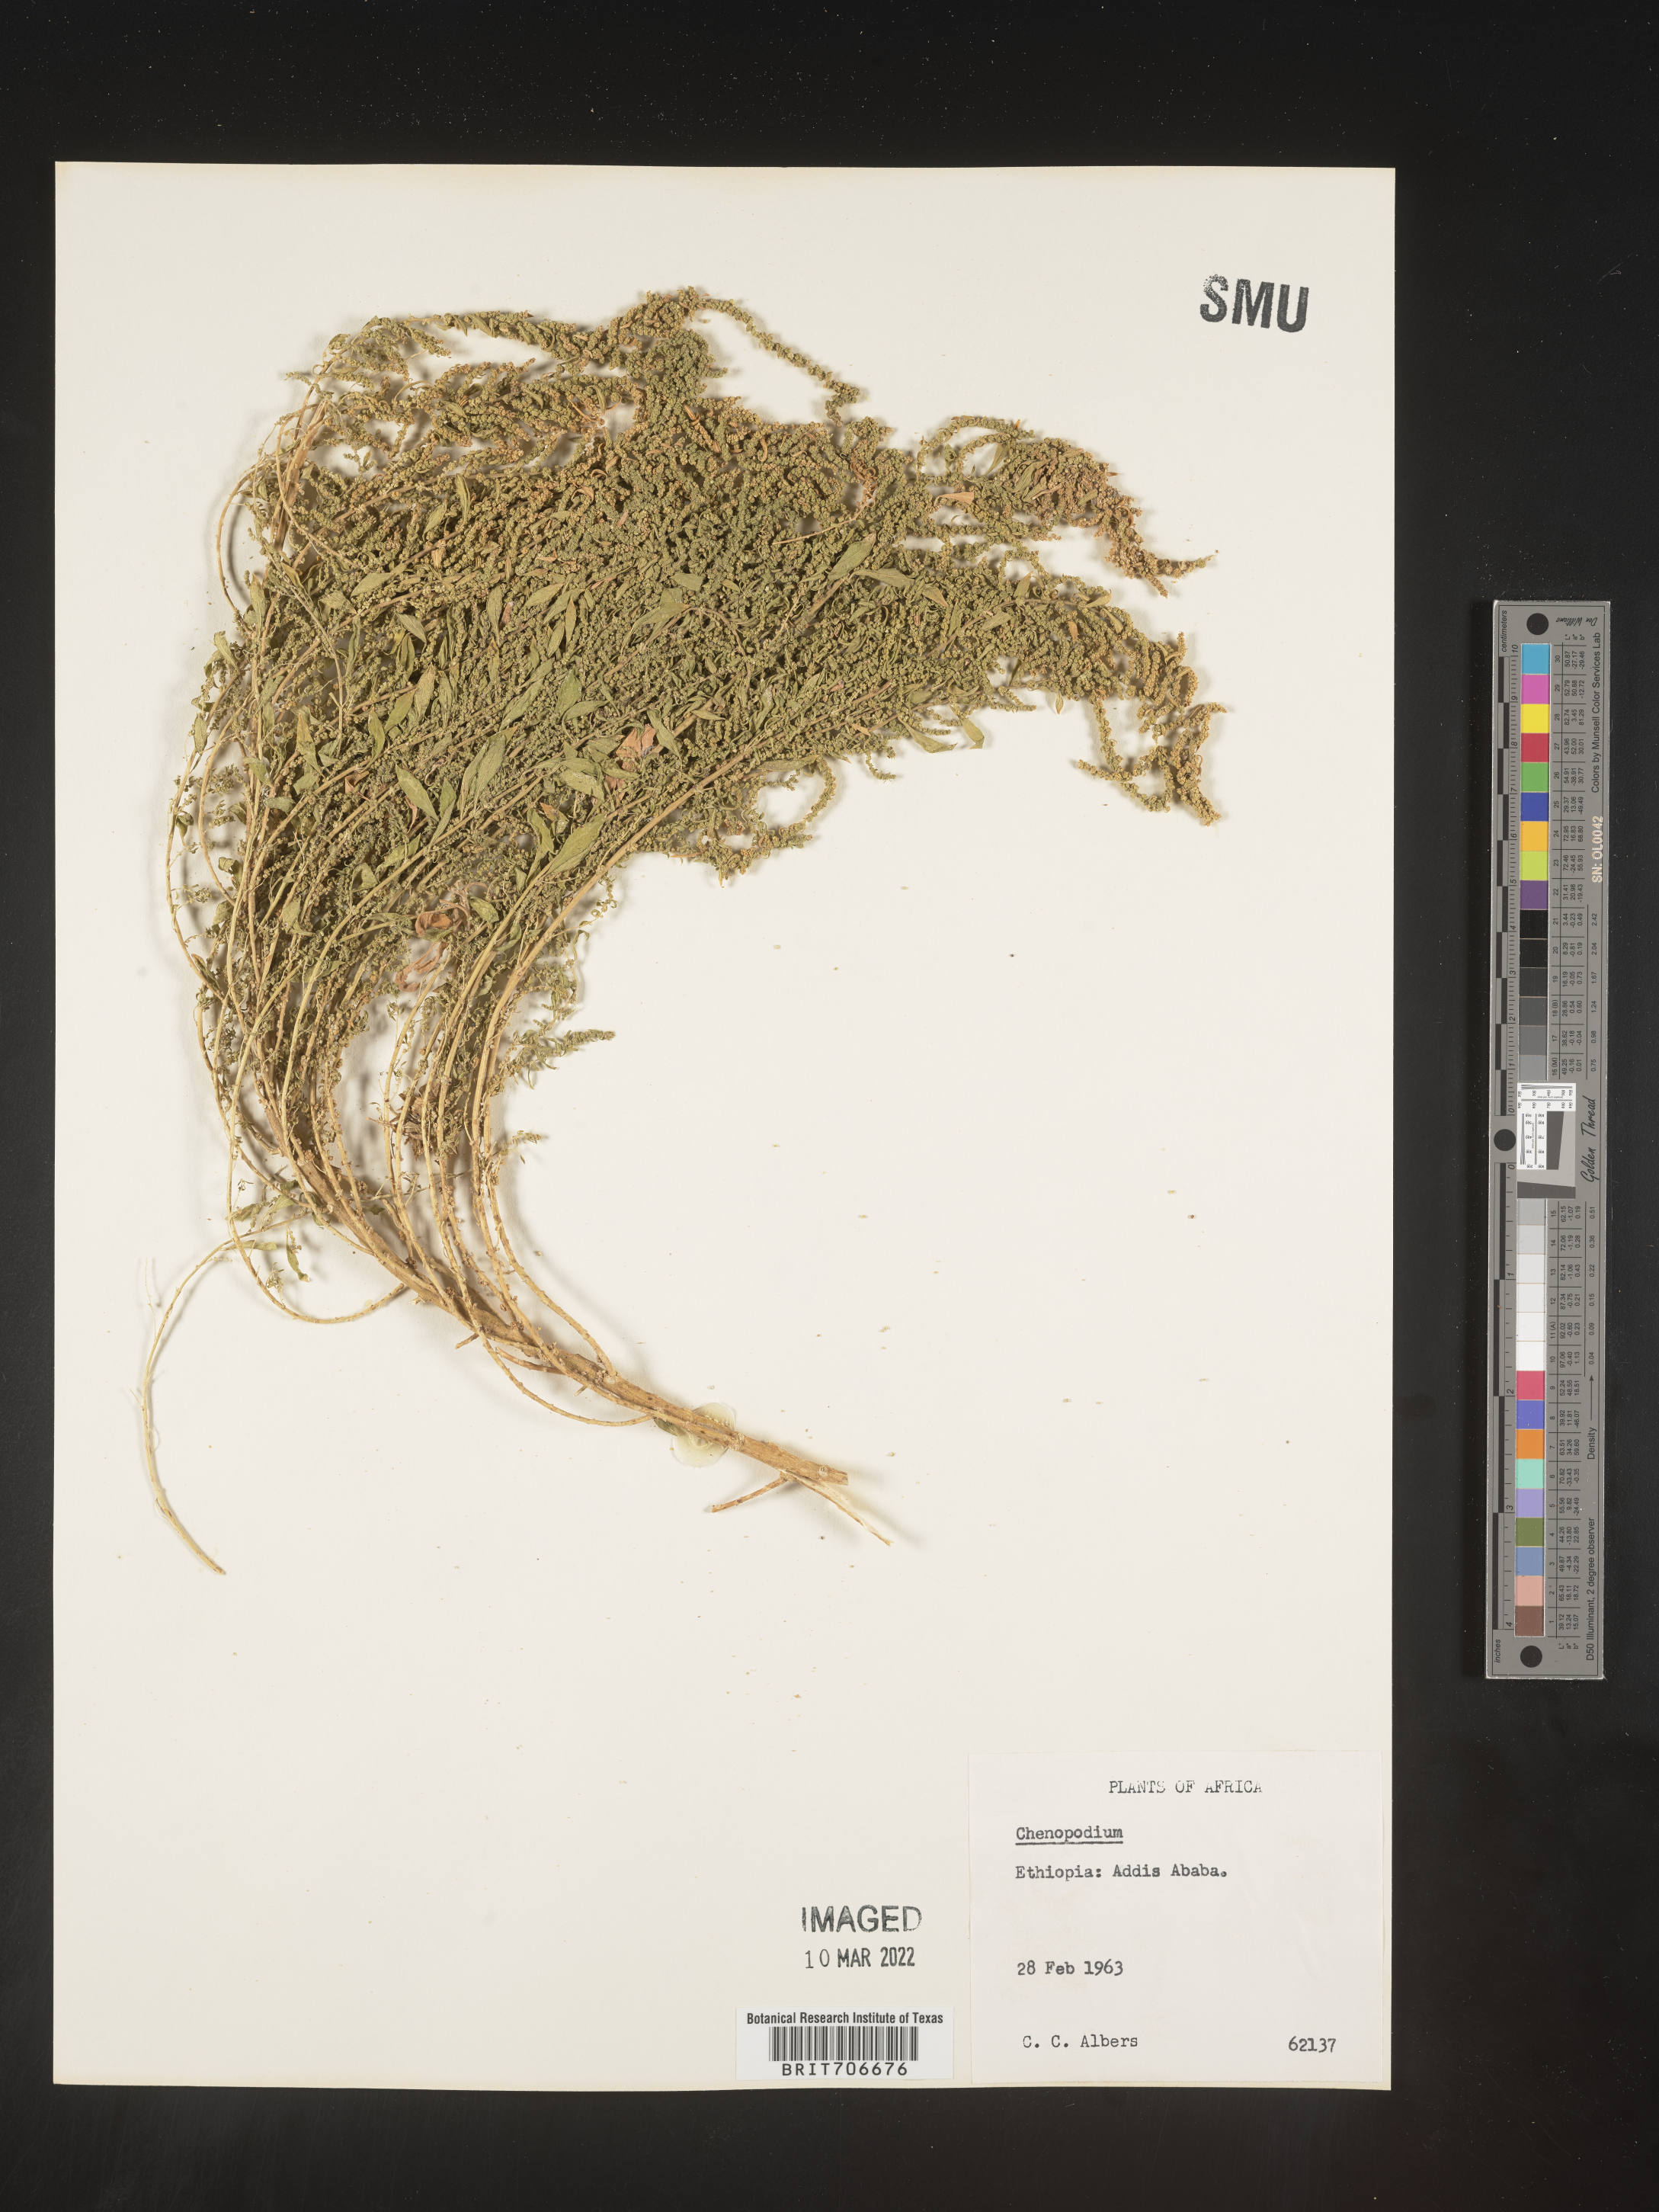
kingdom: Plantae
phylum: Tracheophyta
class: Magnoliopsida
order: Caryophyllales
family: Amaranthaceae
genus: Chenopodium
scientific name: Chenopodium
